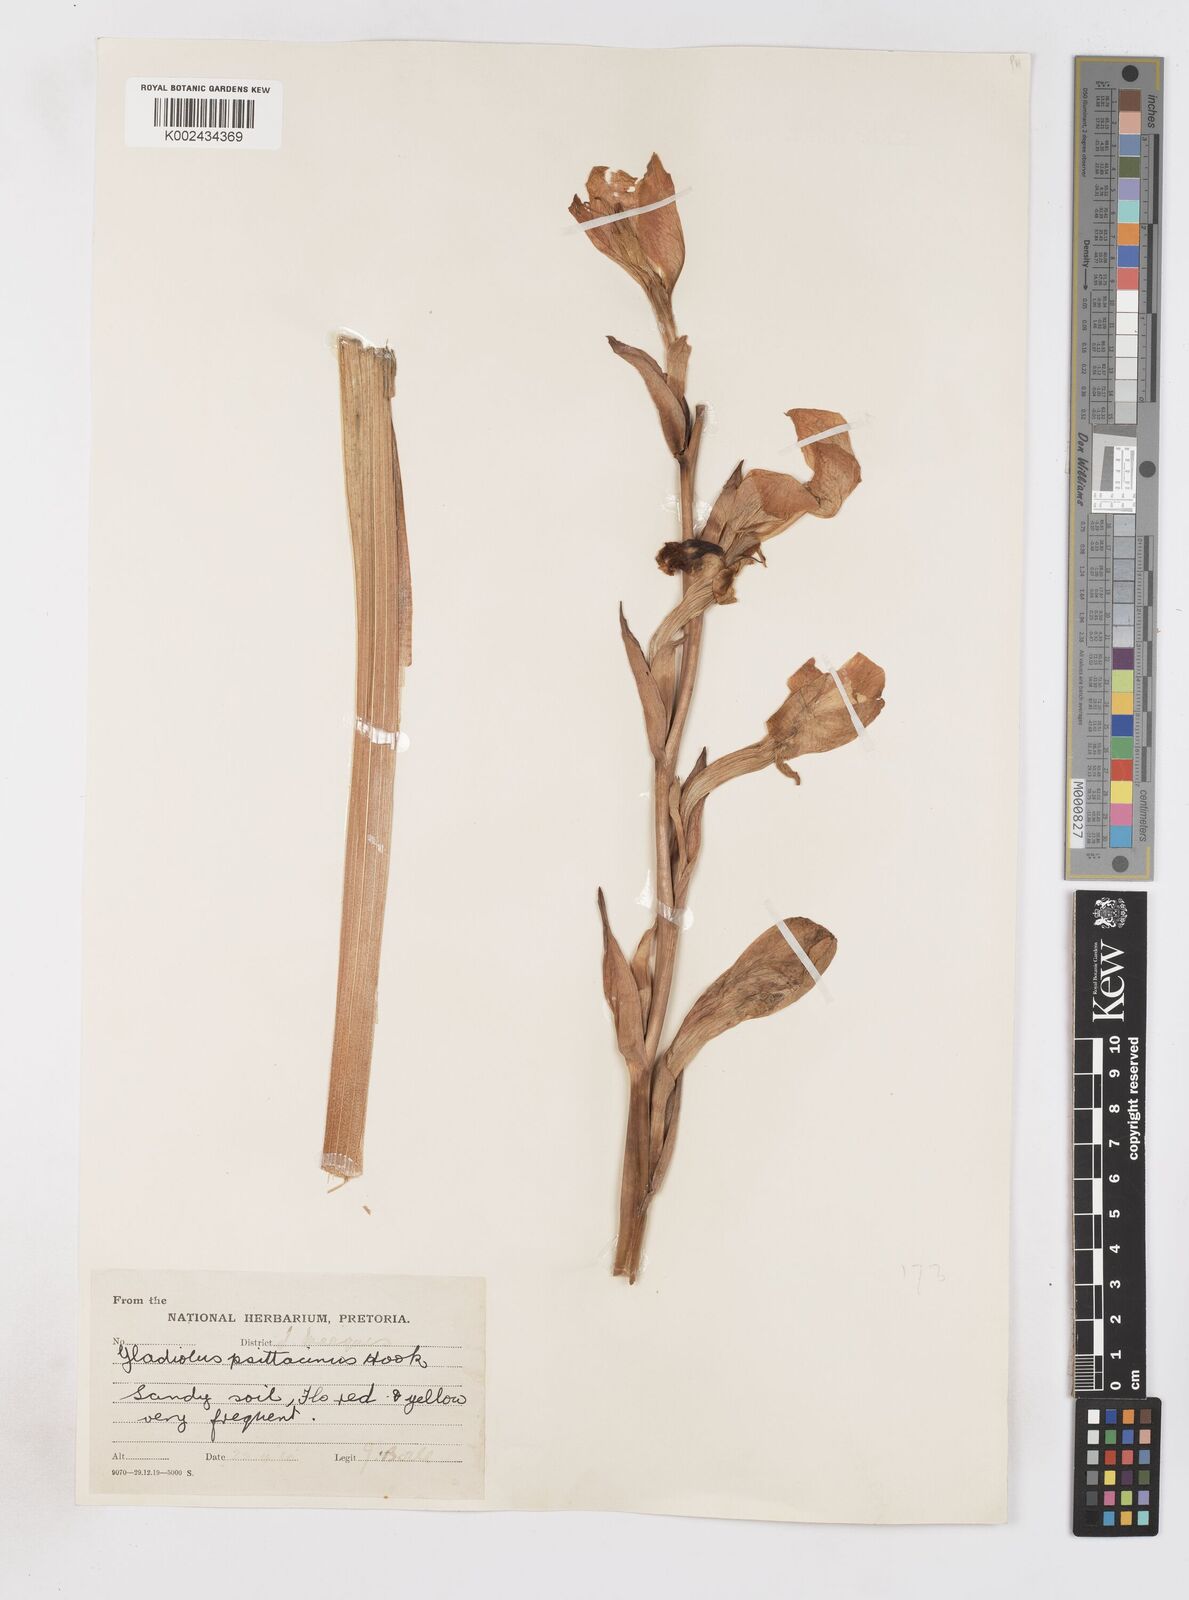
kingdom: Plantae
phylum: Tracheophyta
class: Liliopsida
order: Asparagales
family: Iridaceae
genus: Gladiolus
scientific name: Gladiolus dalenii
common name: Cornflag
